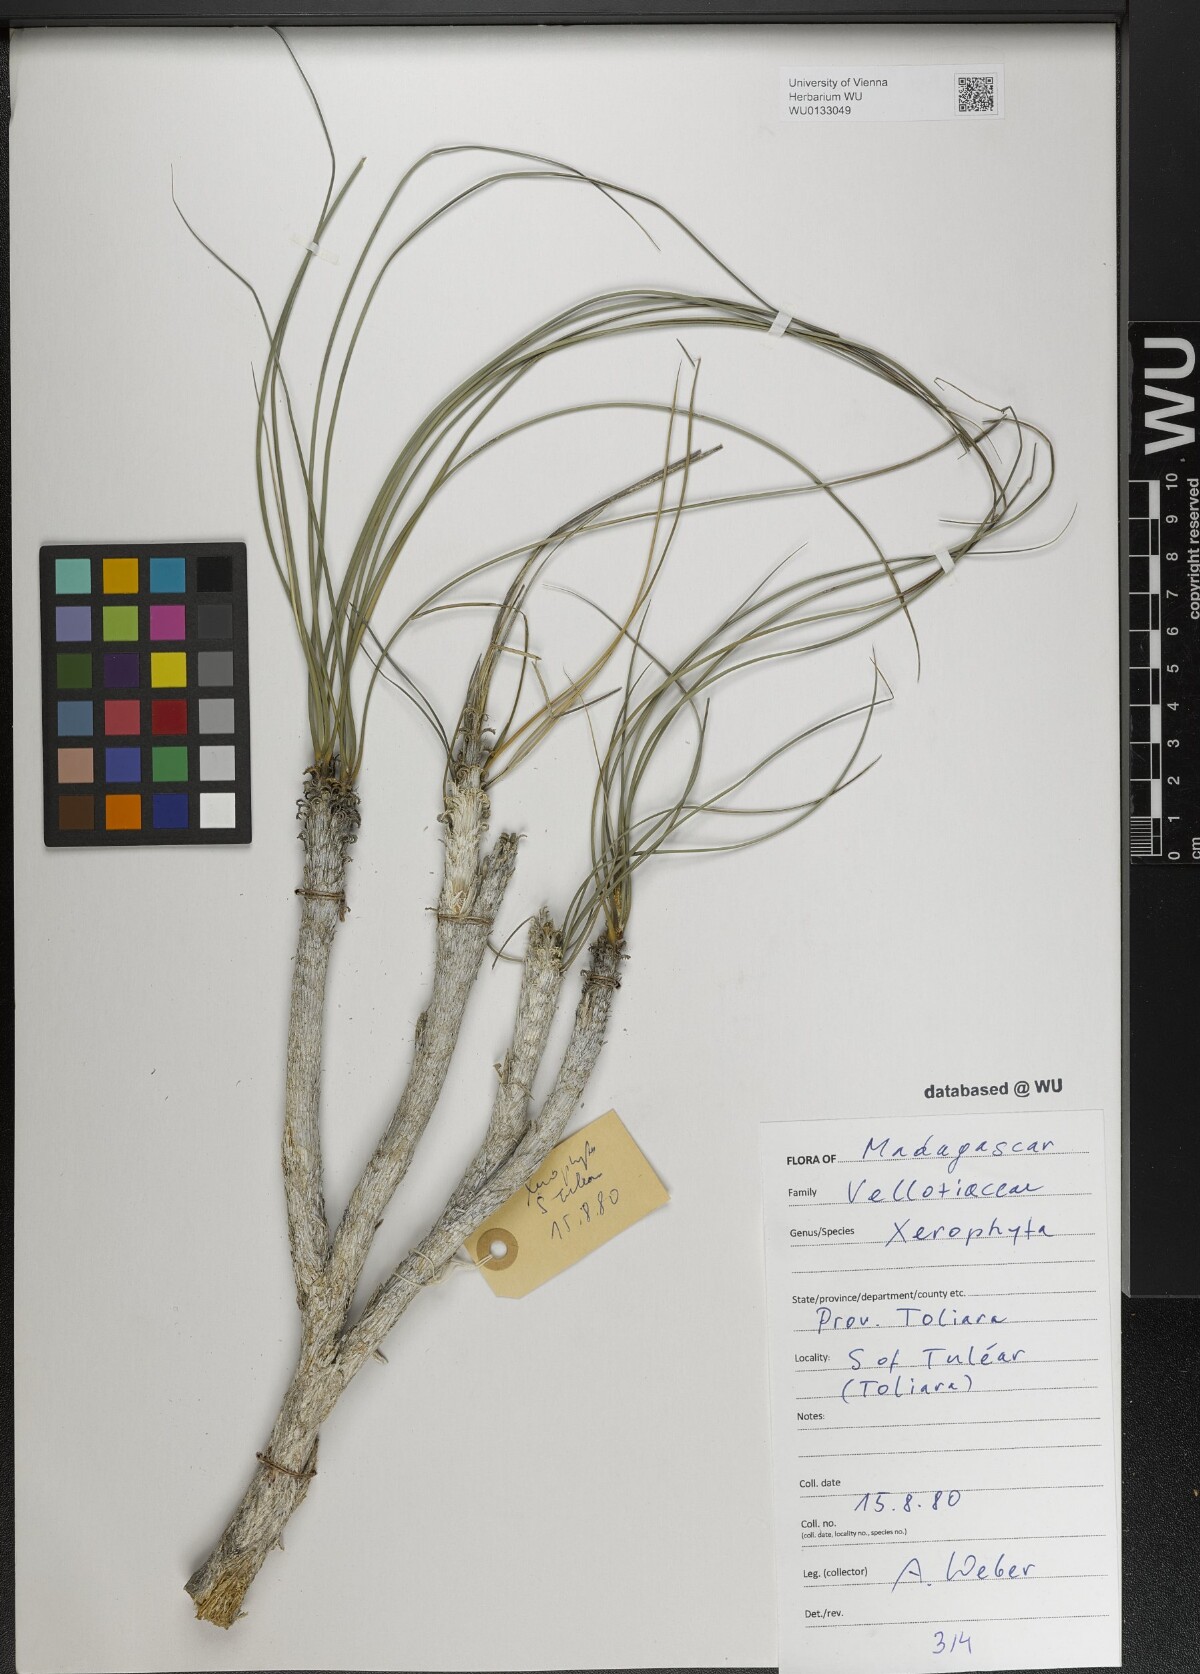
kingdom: Plantae
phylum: Tracheophyta
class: Liliopsida
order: Pandanales
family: Velloziaceae
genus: Xerophyta
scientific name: Xerophyta
